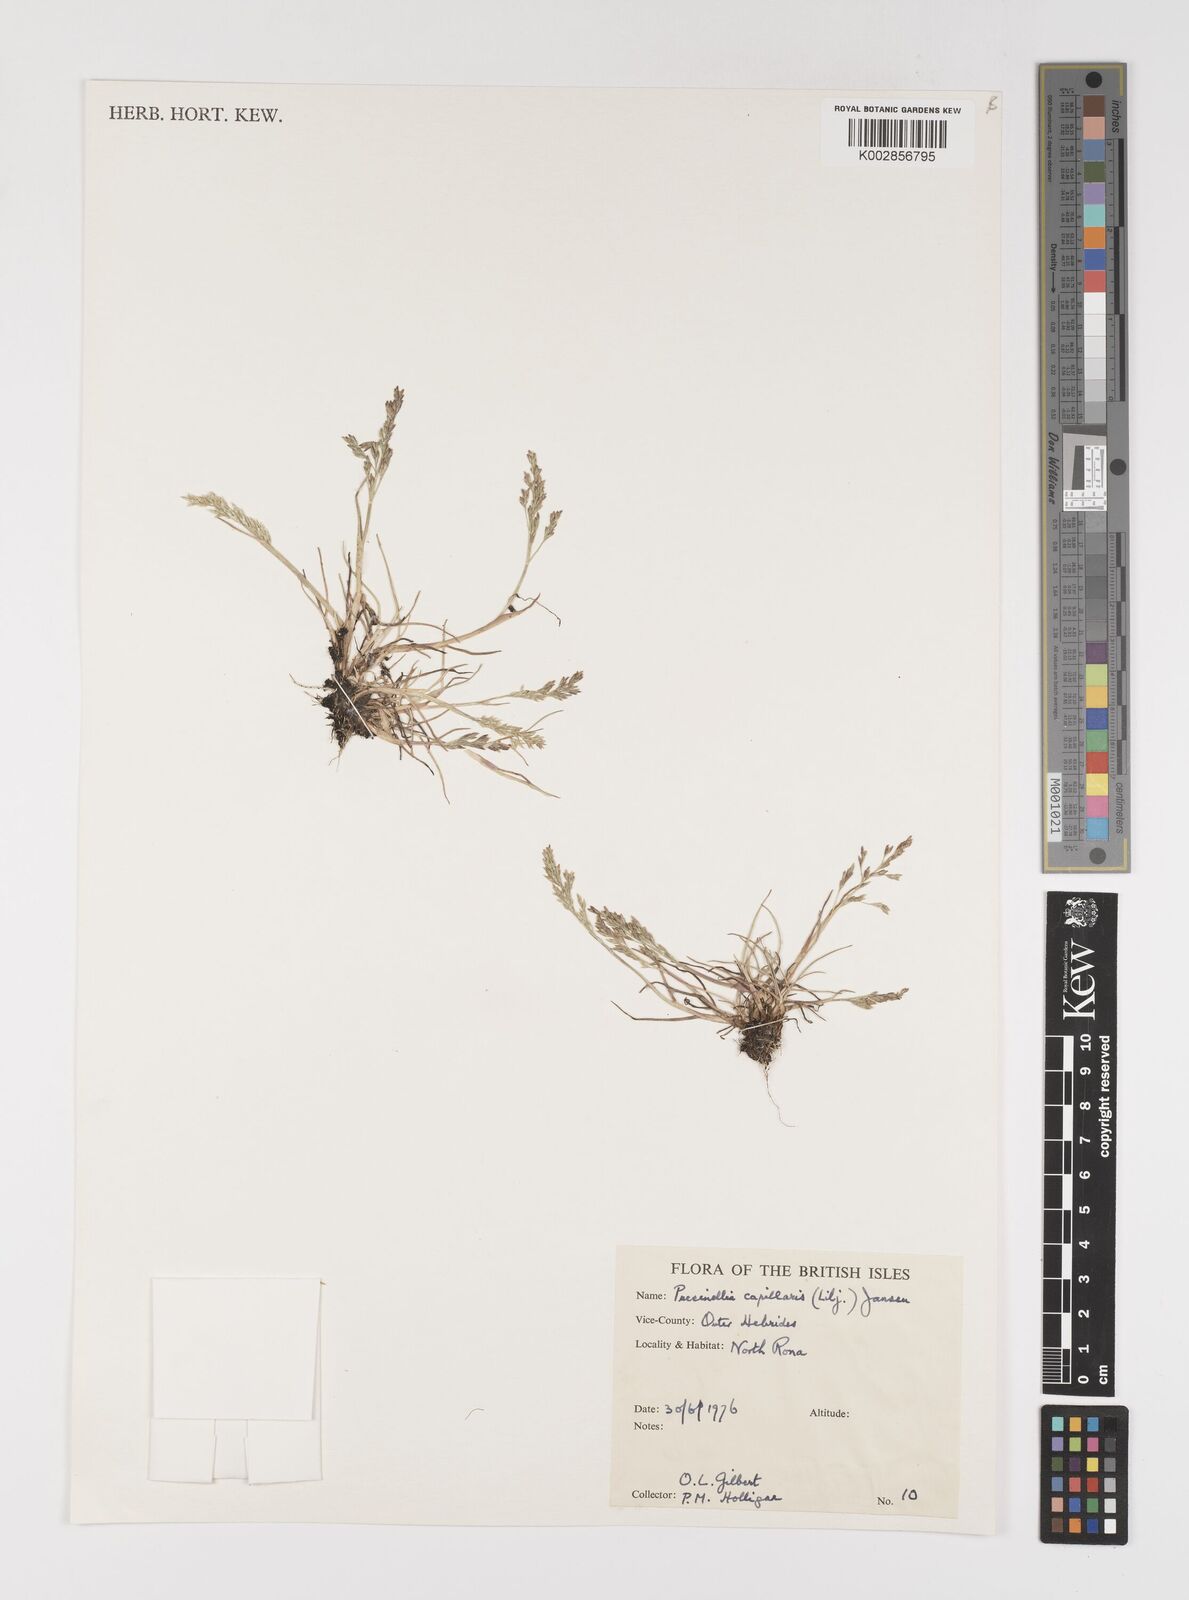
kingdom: Plantae
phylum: Tracheophyta
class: Liliopsida
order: Poales
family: Poaceae
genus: Puccinellia
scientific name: Puccinellia distans
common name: Weeping alkaligrass
